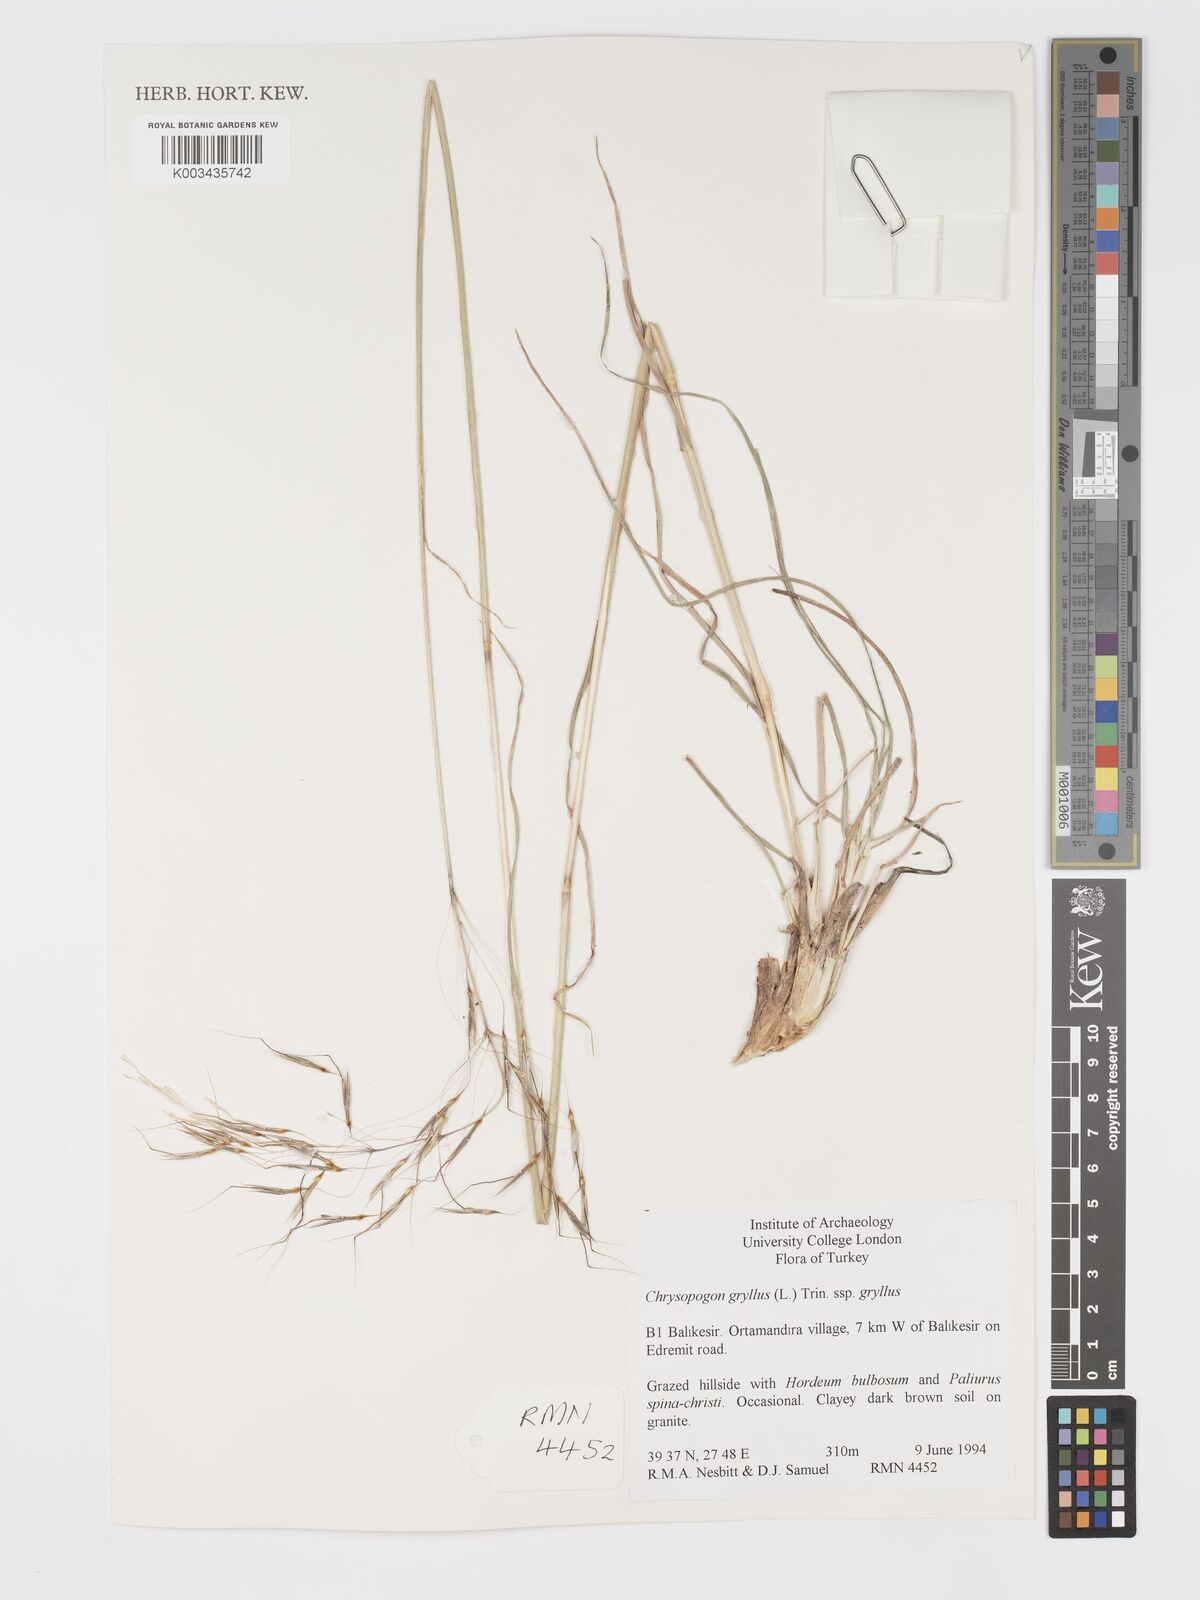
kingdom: Plantae
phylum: Tracheophyta
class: Liliopsida
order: Poales
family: Poaceae
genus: Chrysopogon
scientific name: Chrysopogon gryllus
